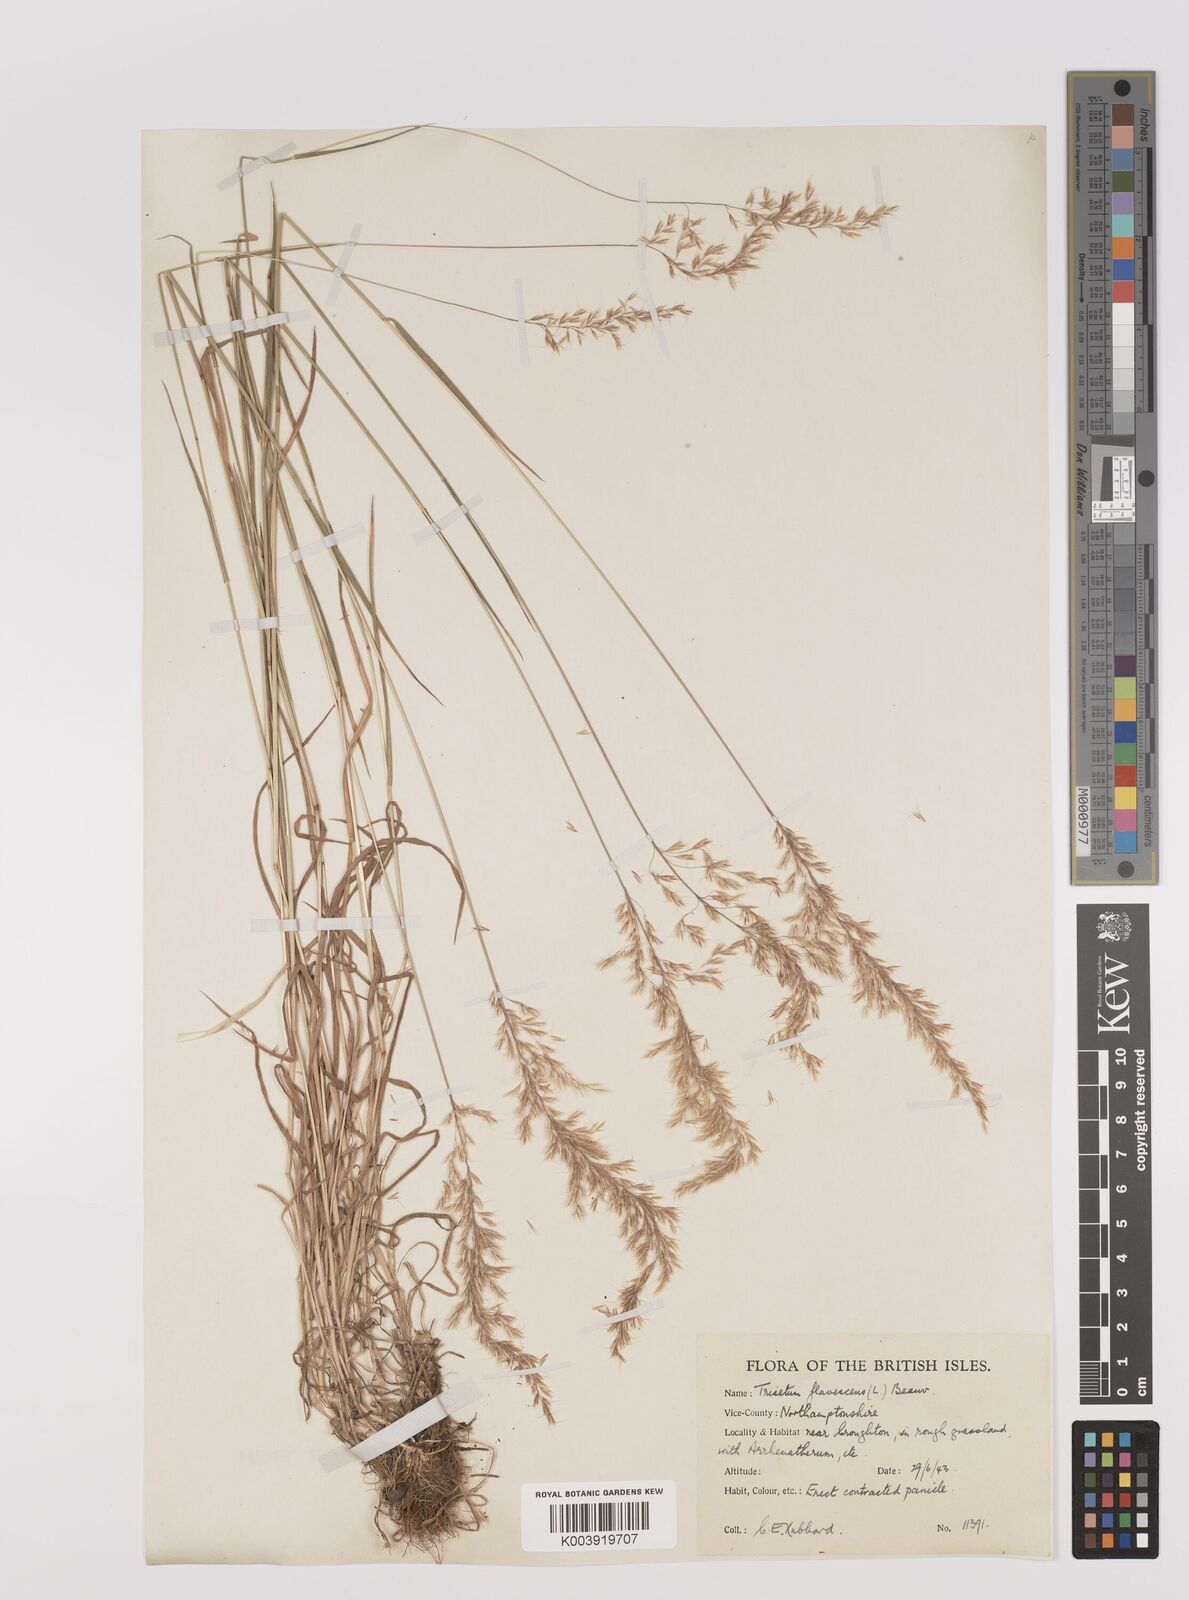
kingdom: Plantae
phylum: Tracheophyta
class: Liliopsida
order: Poales
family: Poaceae
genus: Trisetum
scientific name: Trisetum flavescens
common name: Yellow oat-grass
